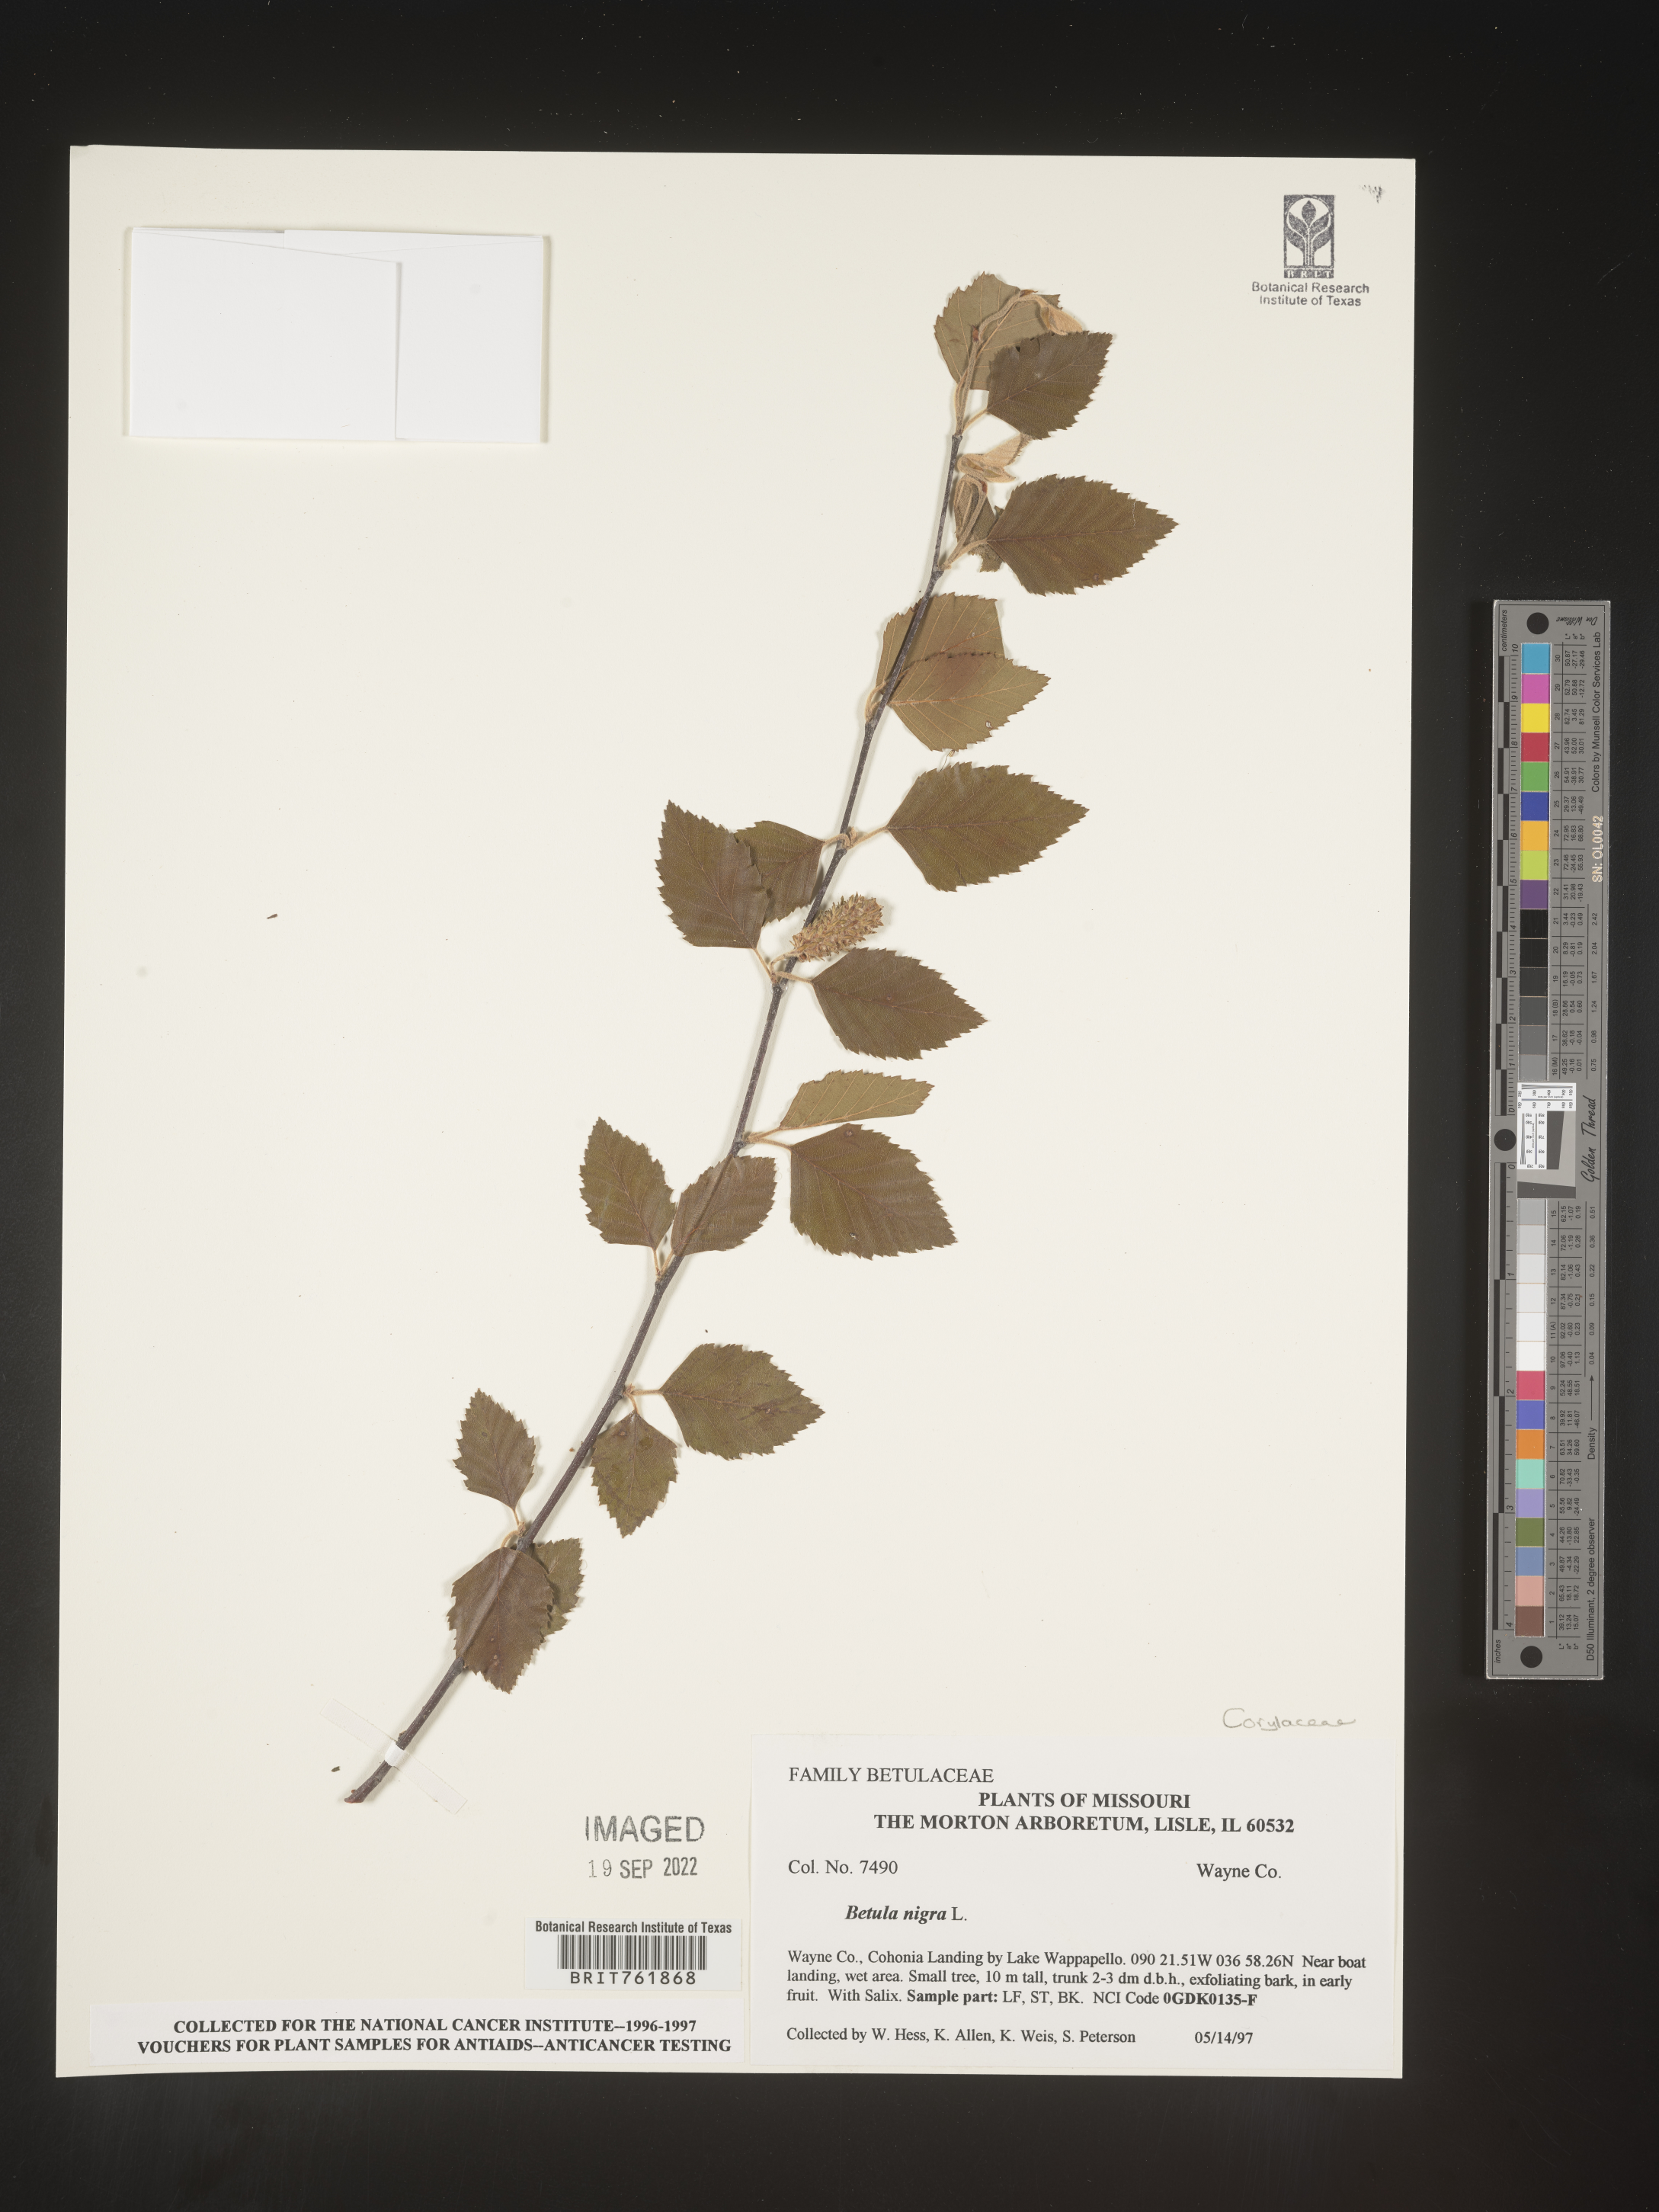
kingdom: Plantae
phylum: Tracheophyta
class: Magnoliopsida
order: Fagales
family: Betulaceae
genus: Betula
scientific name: Betula nigra
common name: Black birch
